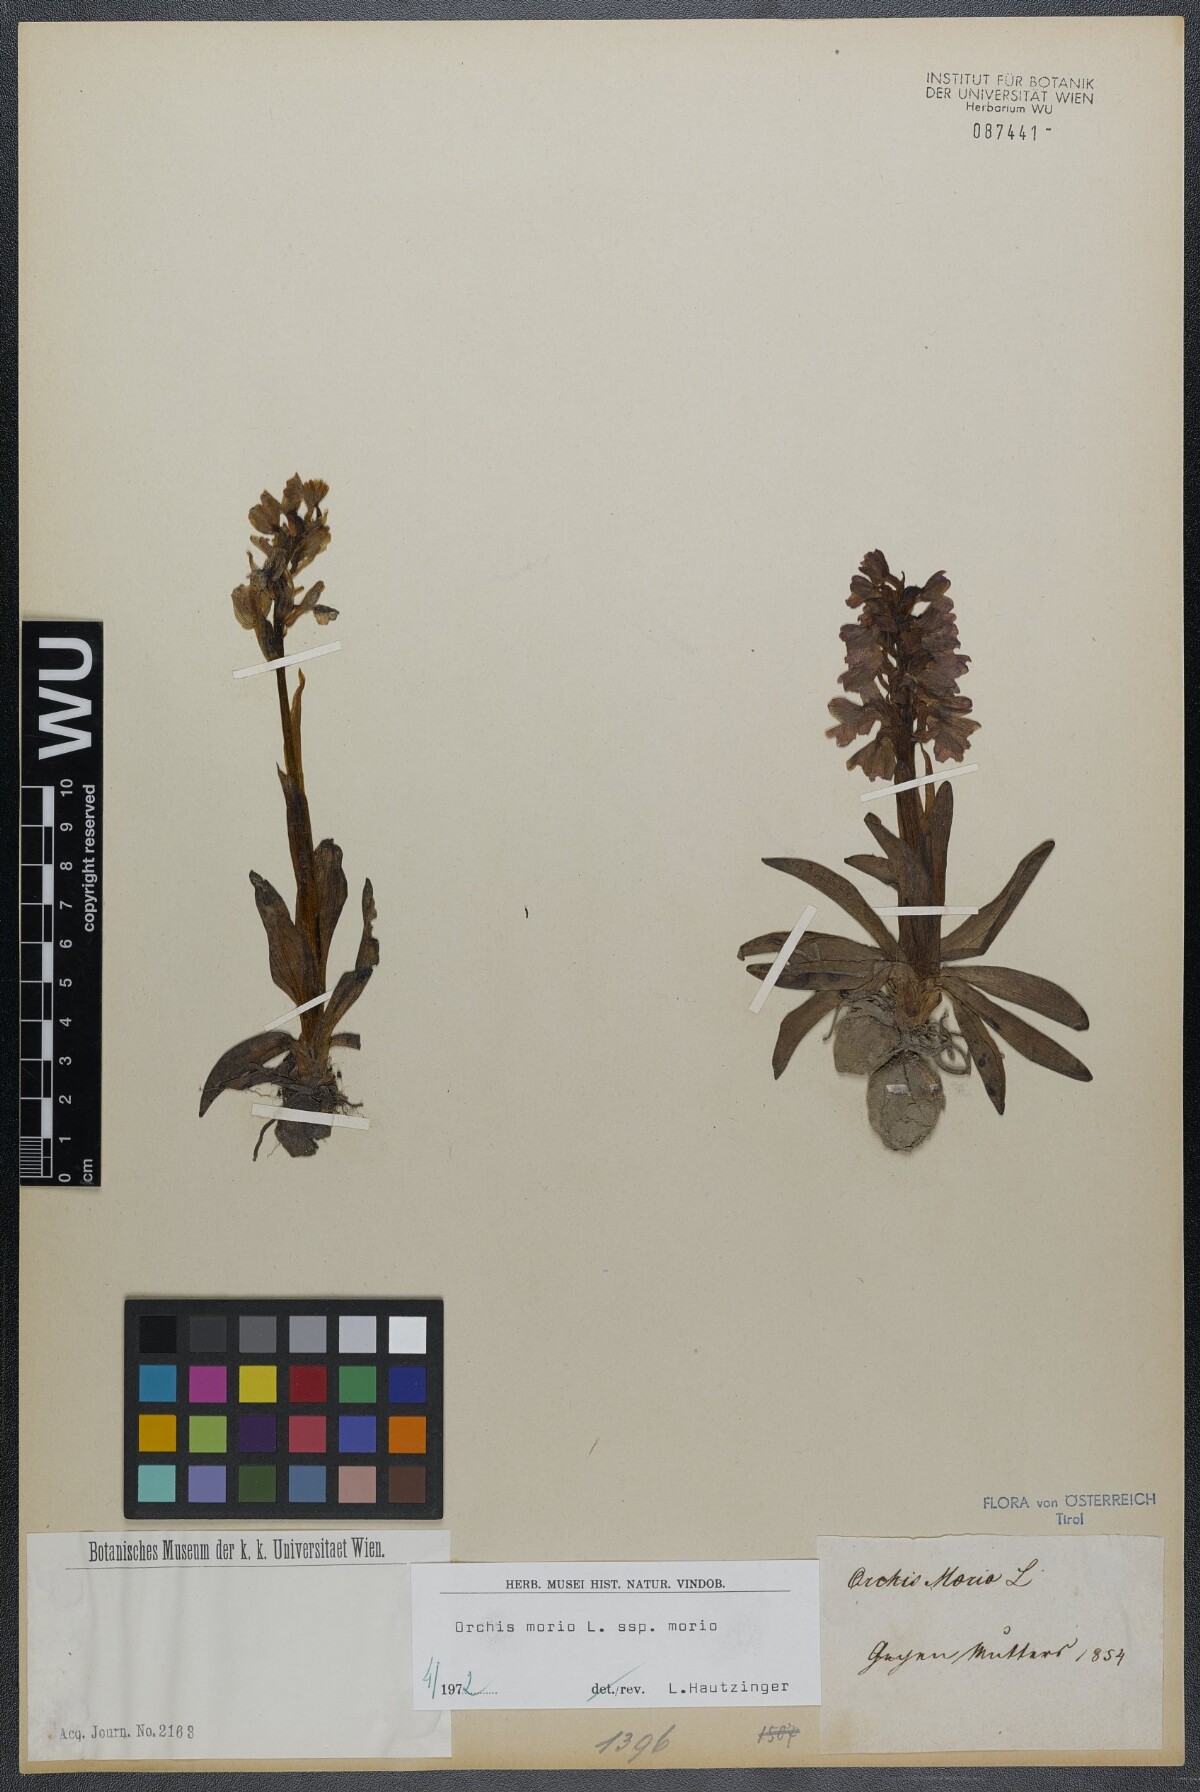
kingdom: Plantae
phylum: Tracheophyta
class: Liliopsida
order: Asparagales
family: Orchidaceae
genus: Anacamptis
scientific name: Anacamptis morio
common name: Green-winged orchid
